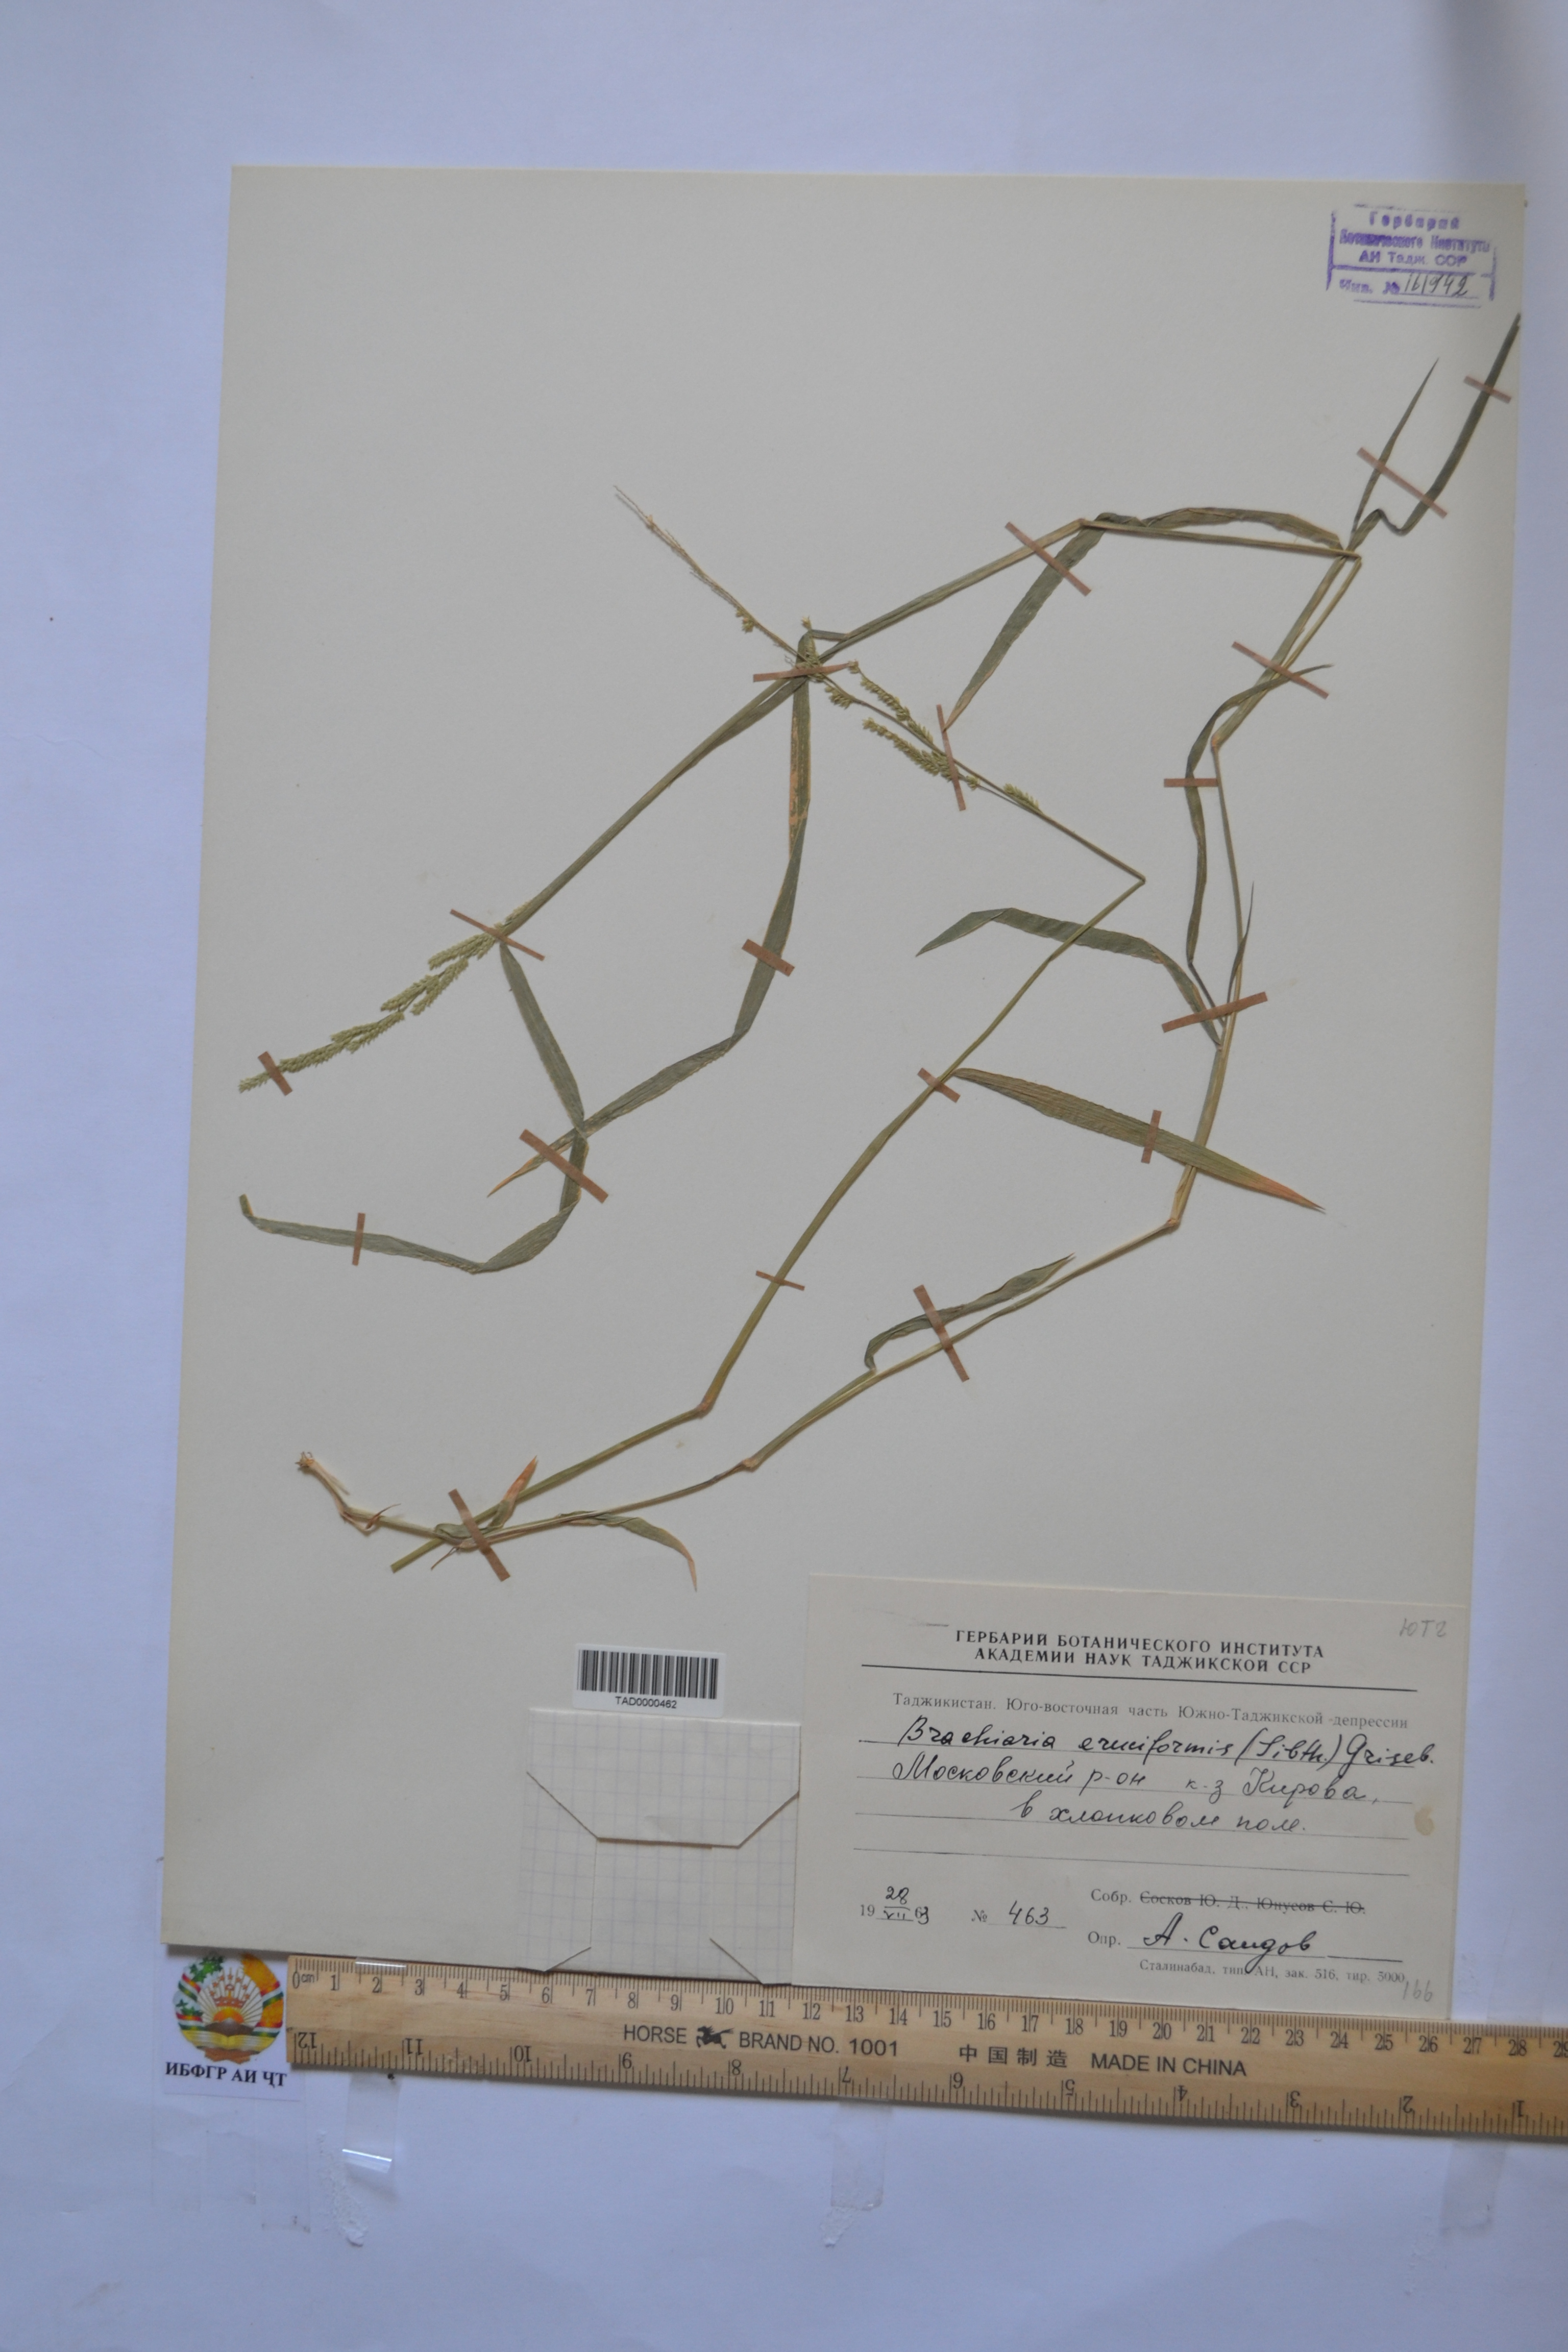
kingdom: Plantae
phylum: Tracheophyta
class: Liliopsida
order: Poales
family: Poaceae
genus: Moorochloa
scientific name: Moorochloa eruciformis
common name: Sweet signalgrass
